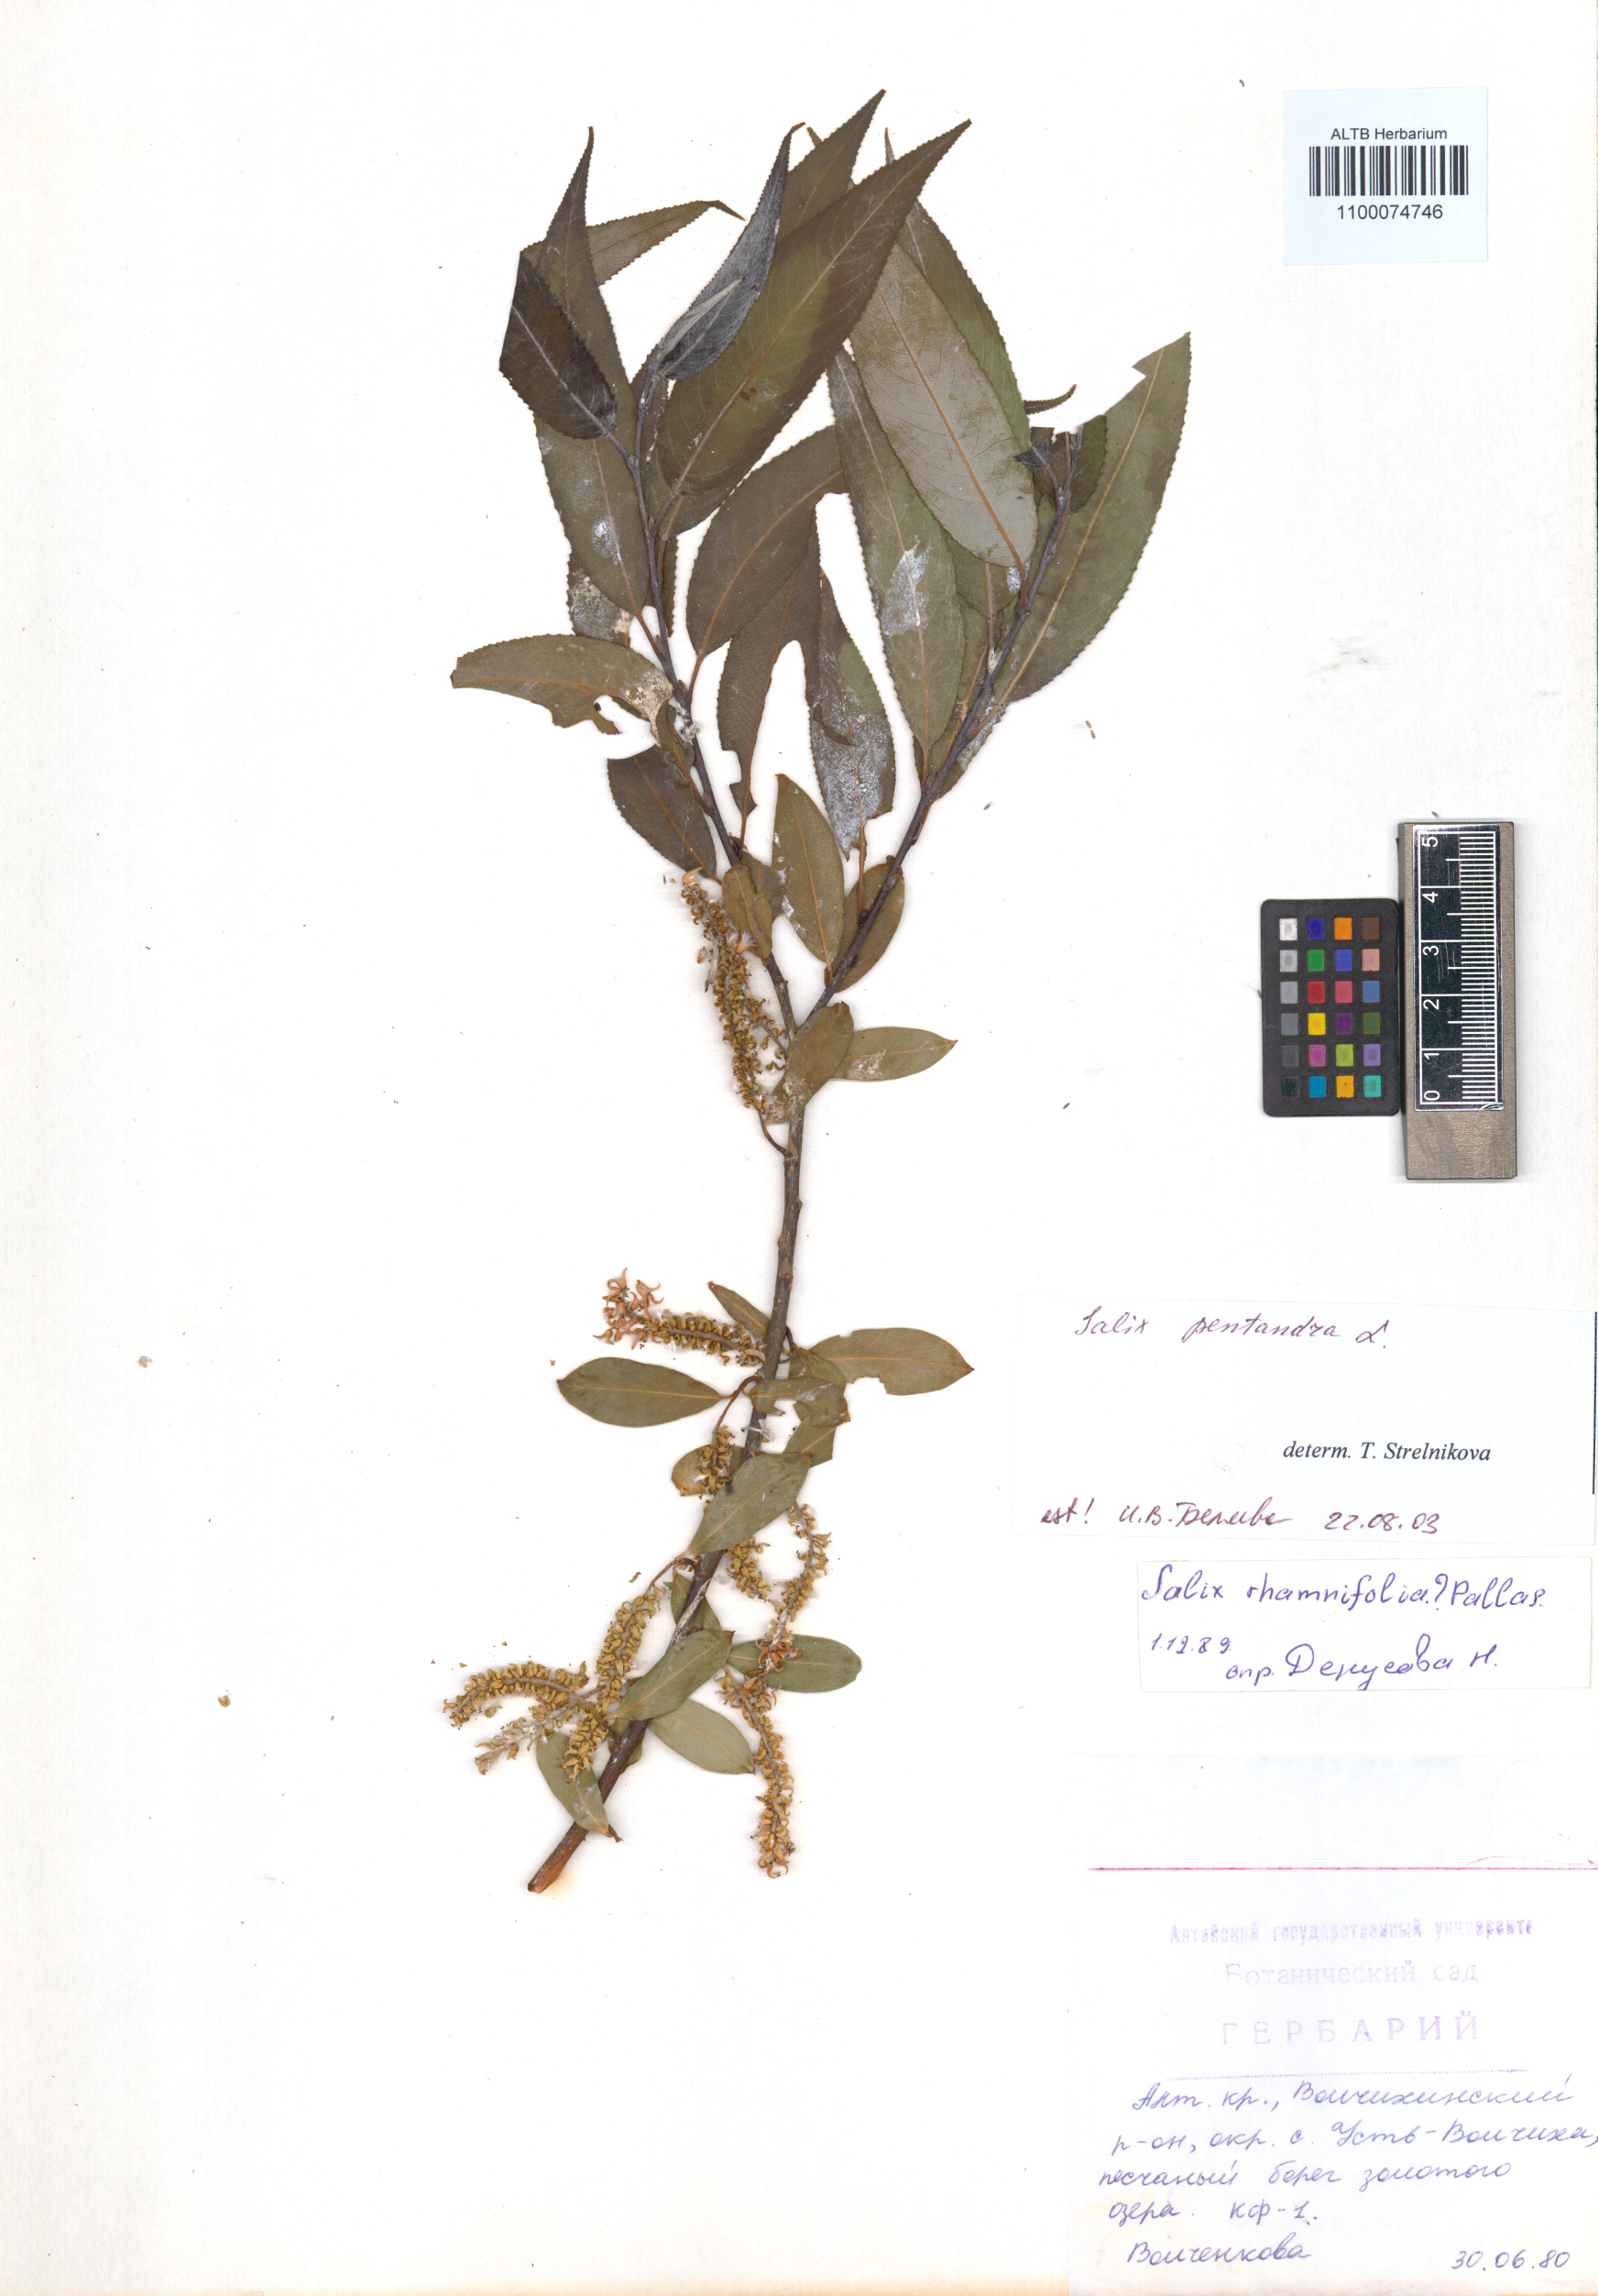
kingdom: Plantae
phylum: Tracheophyta
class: Magnoliopsida
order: Malpighiales
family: Salicaceae
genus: Salix
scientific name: Salix pentandra
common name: Bay willow
